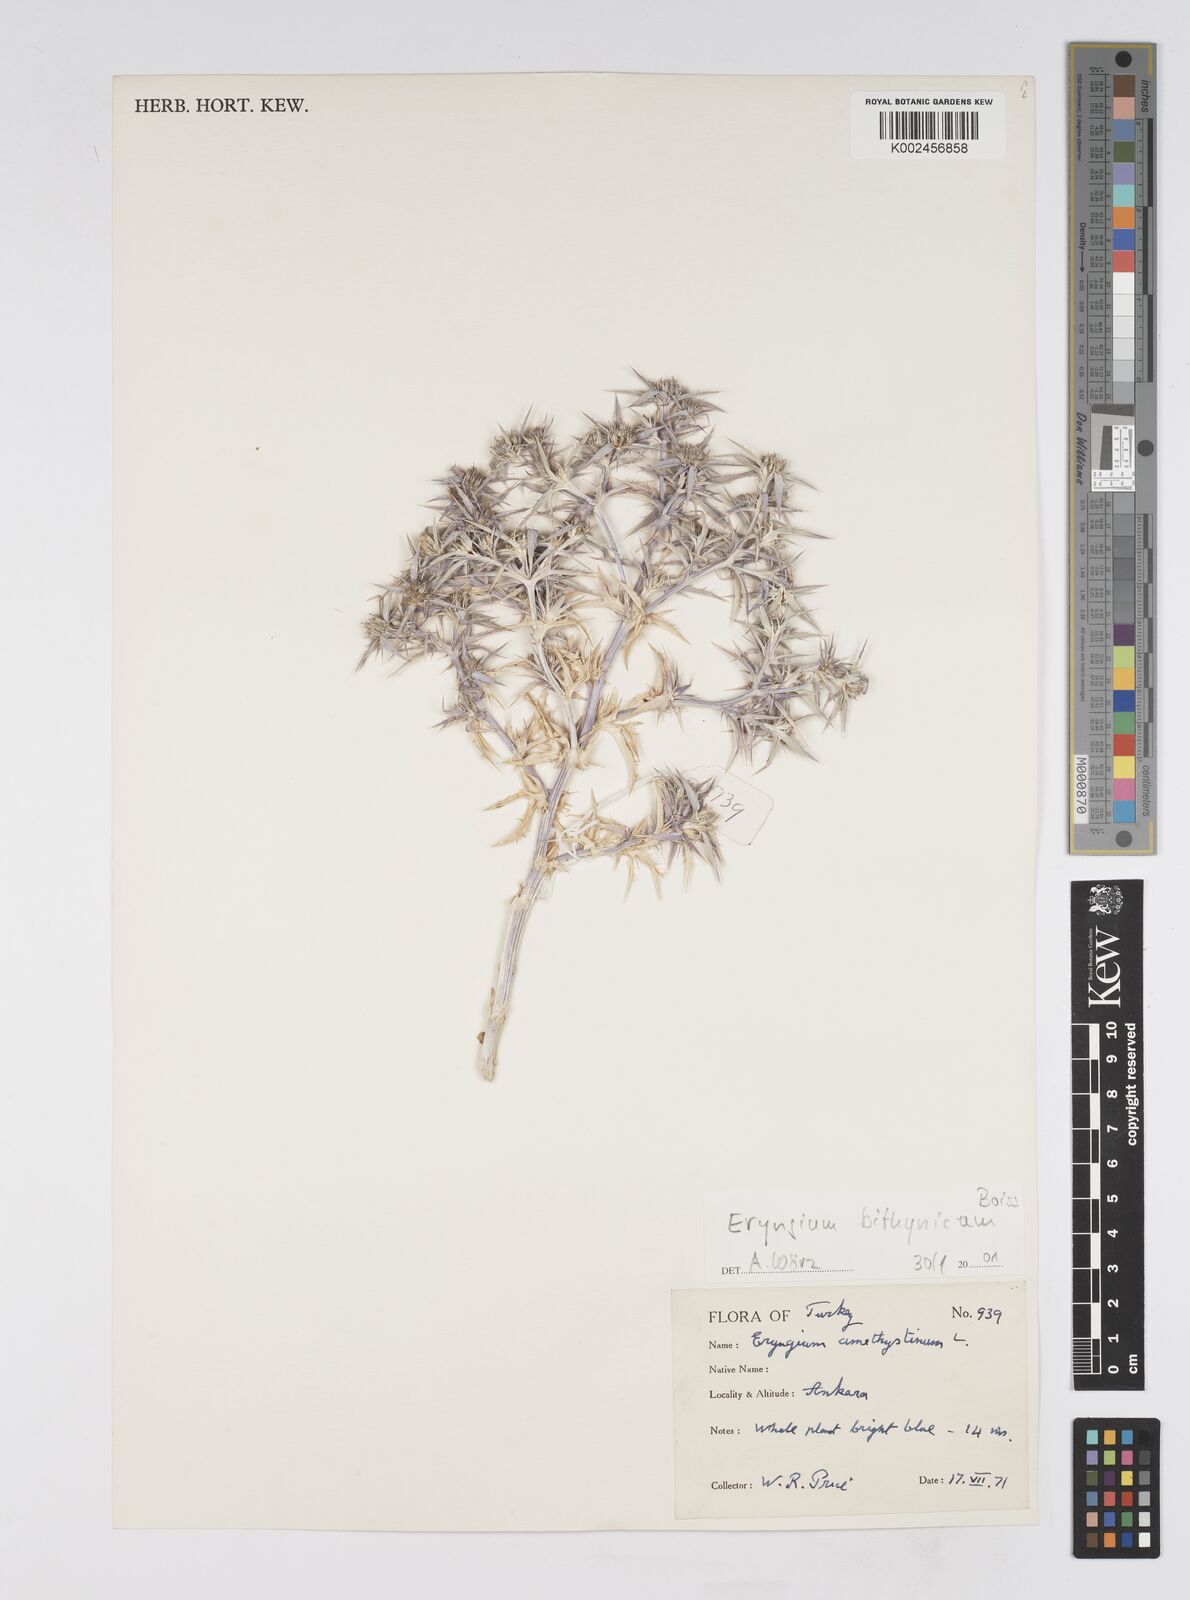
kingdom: Plantae
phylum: Tracheophyta
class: Magnoliopsida
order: Apiales
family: Apiaceae
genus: Eryngium
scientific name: Eryngium bithynicum
